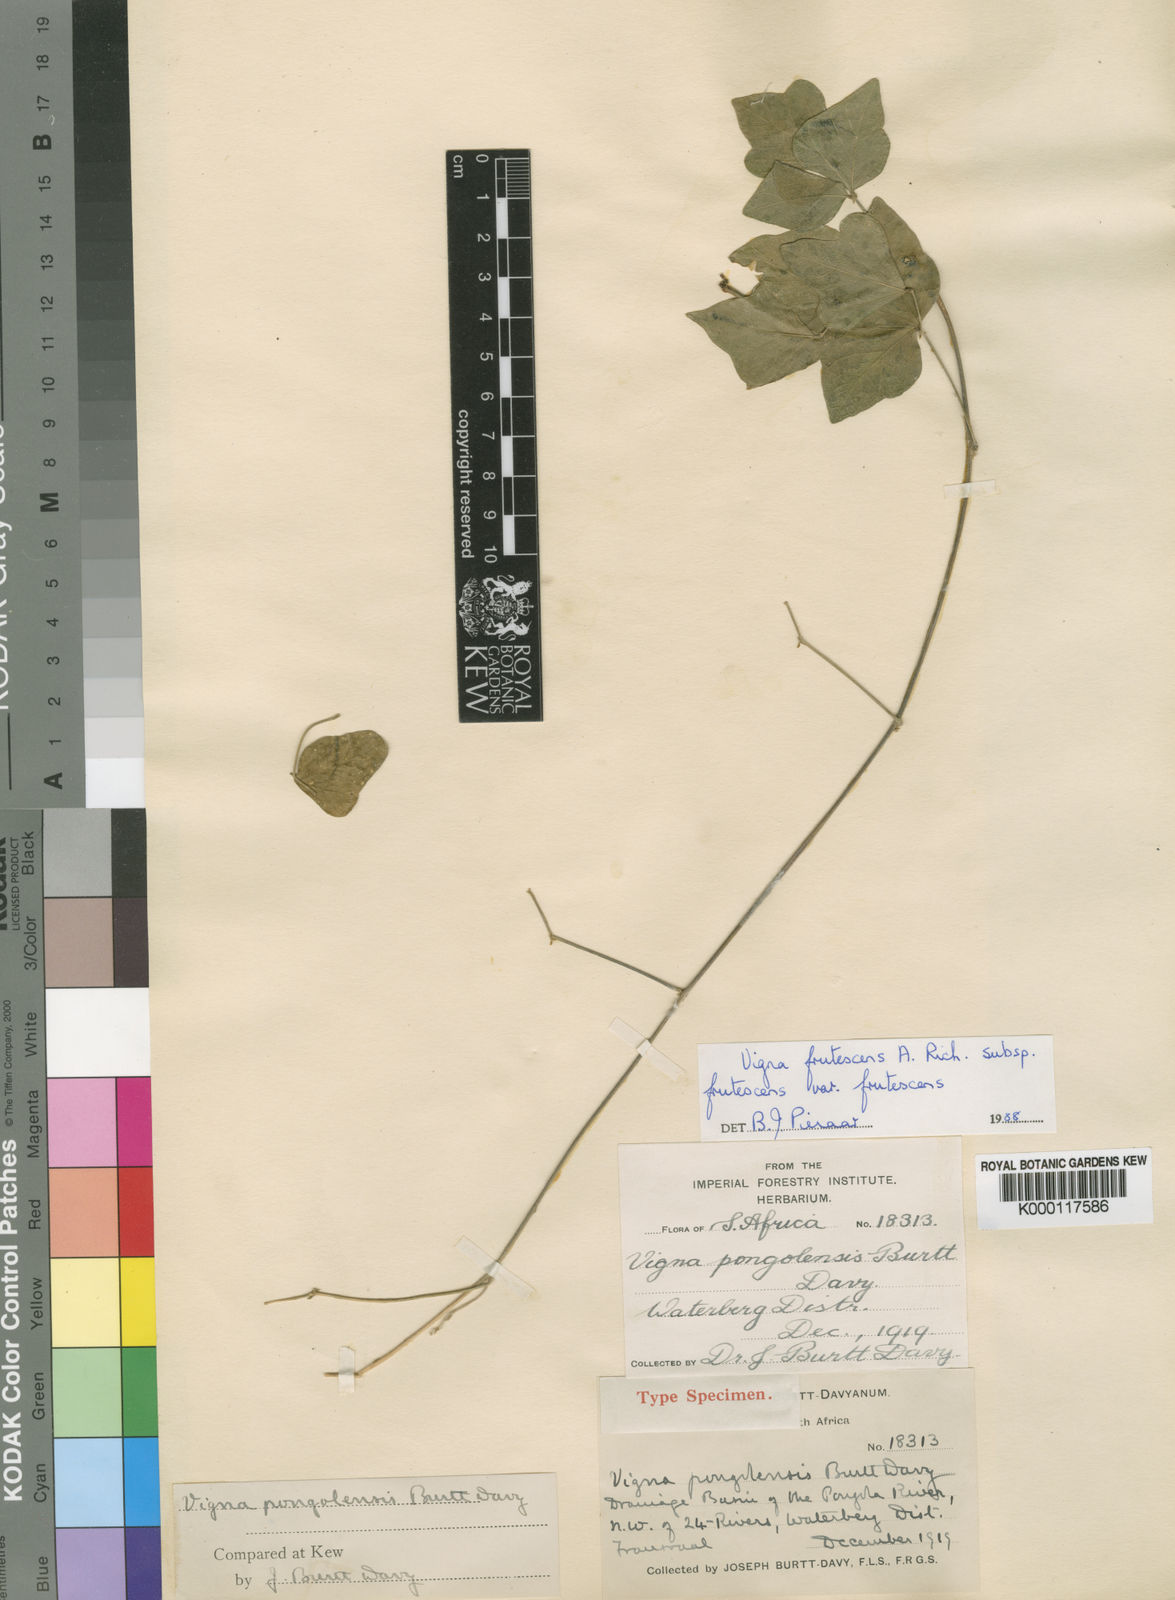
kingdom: Plantae
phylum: Tracheophyta
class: Magnoliopsida
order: Fabales
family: Fabaceae
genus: Vigna
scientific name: Vigna
